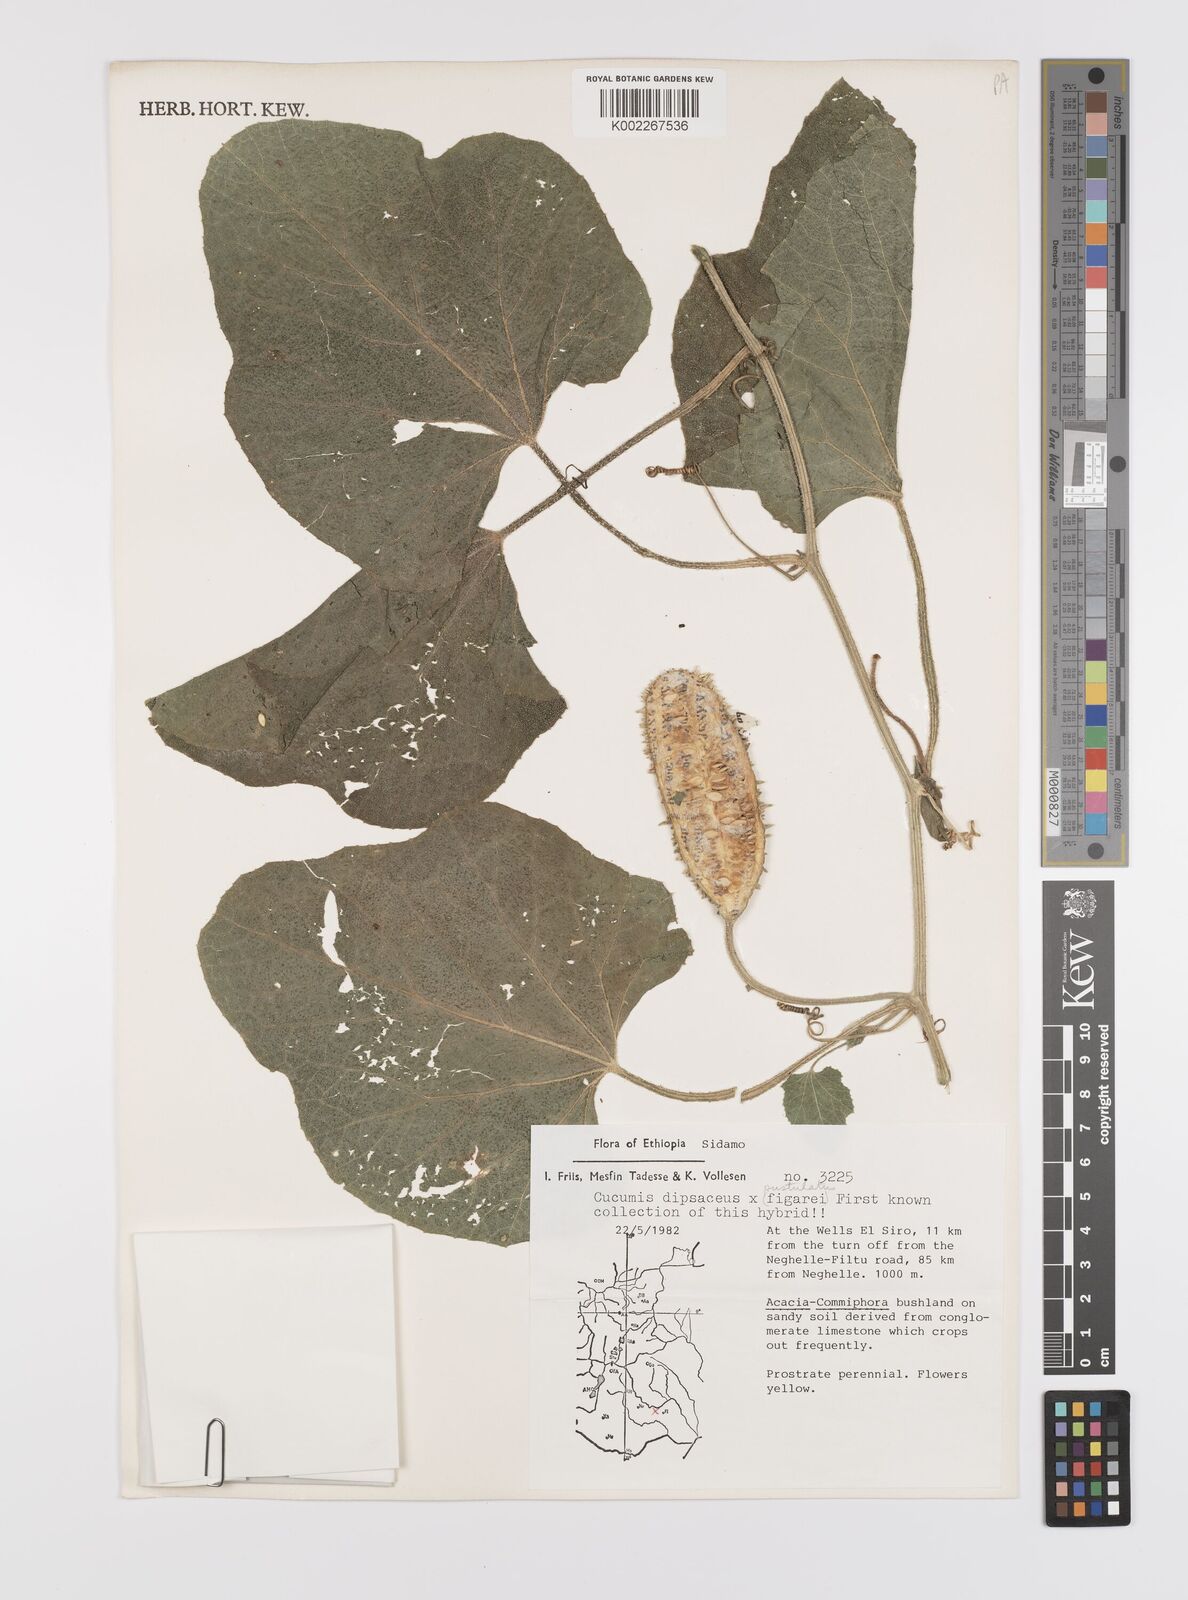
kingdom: Plantae
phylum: Tracheophyta
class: Magnoliopsida
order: Cucurbitales
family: Cucurbitaceae
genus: Cucumis
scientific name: Cucumis dipsaceus
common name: Hedgehog gourd
